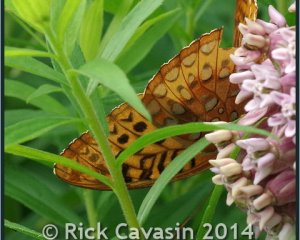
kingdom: Animalia
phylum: Arthropoda
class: Insecta
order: Lepidoptera
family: Nymphalidae
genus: Speyeria
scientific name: Speyeria cybele
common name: Great Spangled Fritillary
